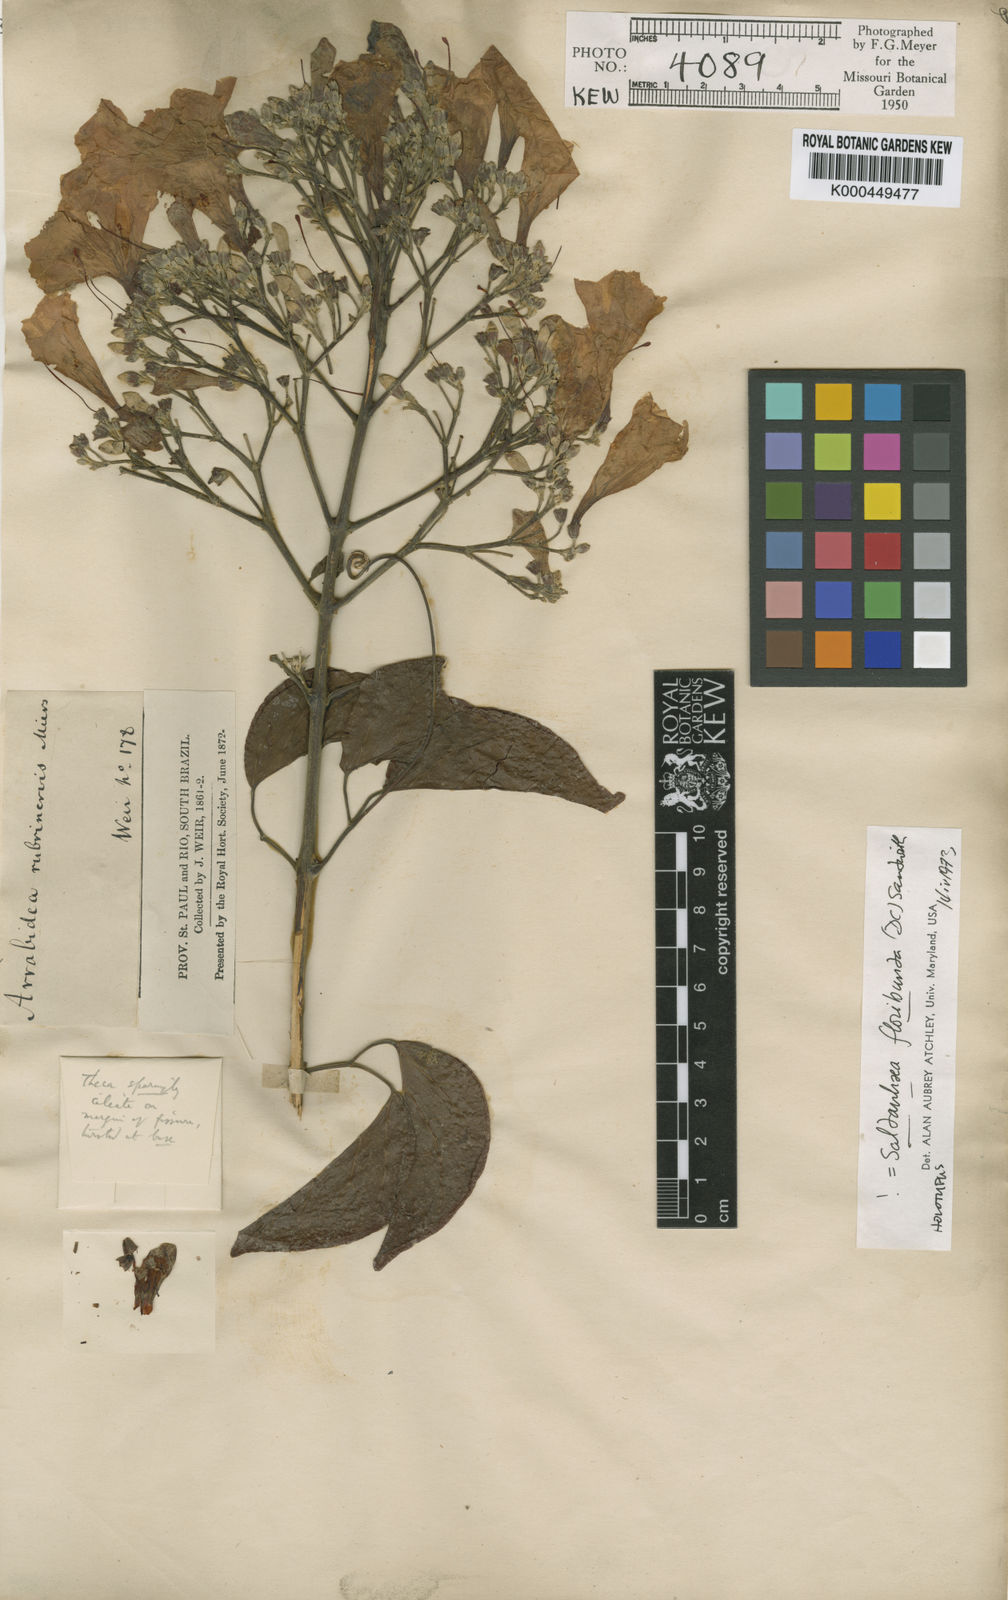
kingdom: Plantae
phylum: Tracheophyta
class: Magnoliopsida
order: Lamiales
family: Bignoniaceae
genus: Cuspidaria
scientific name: Cuspidaria floribunda
